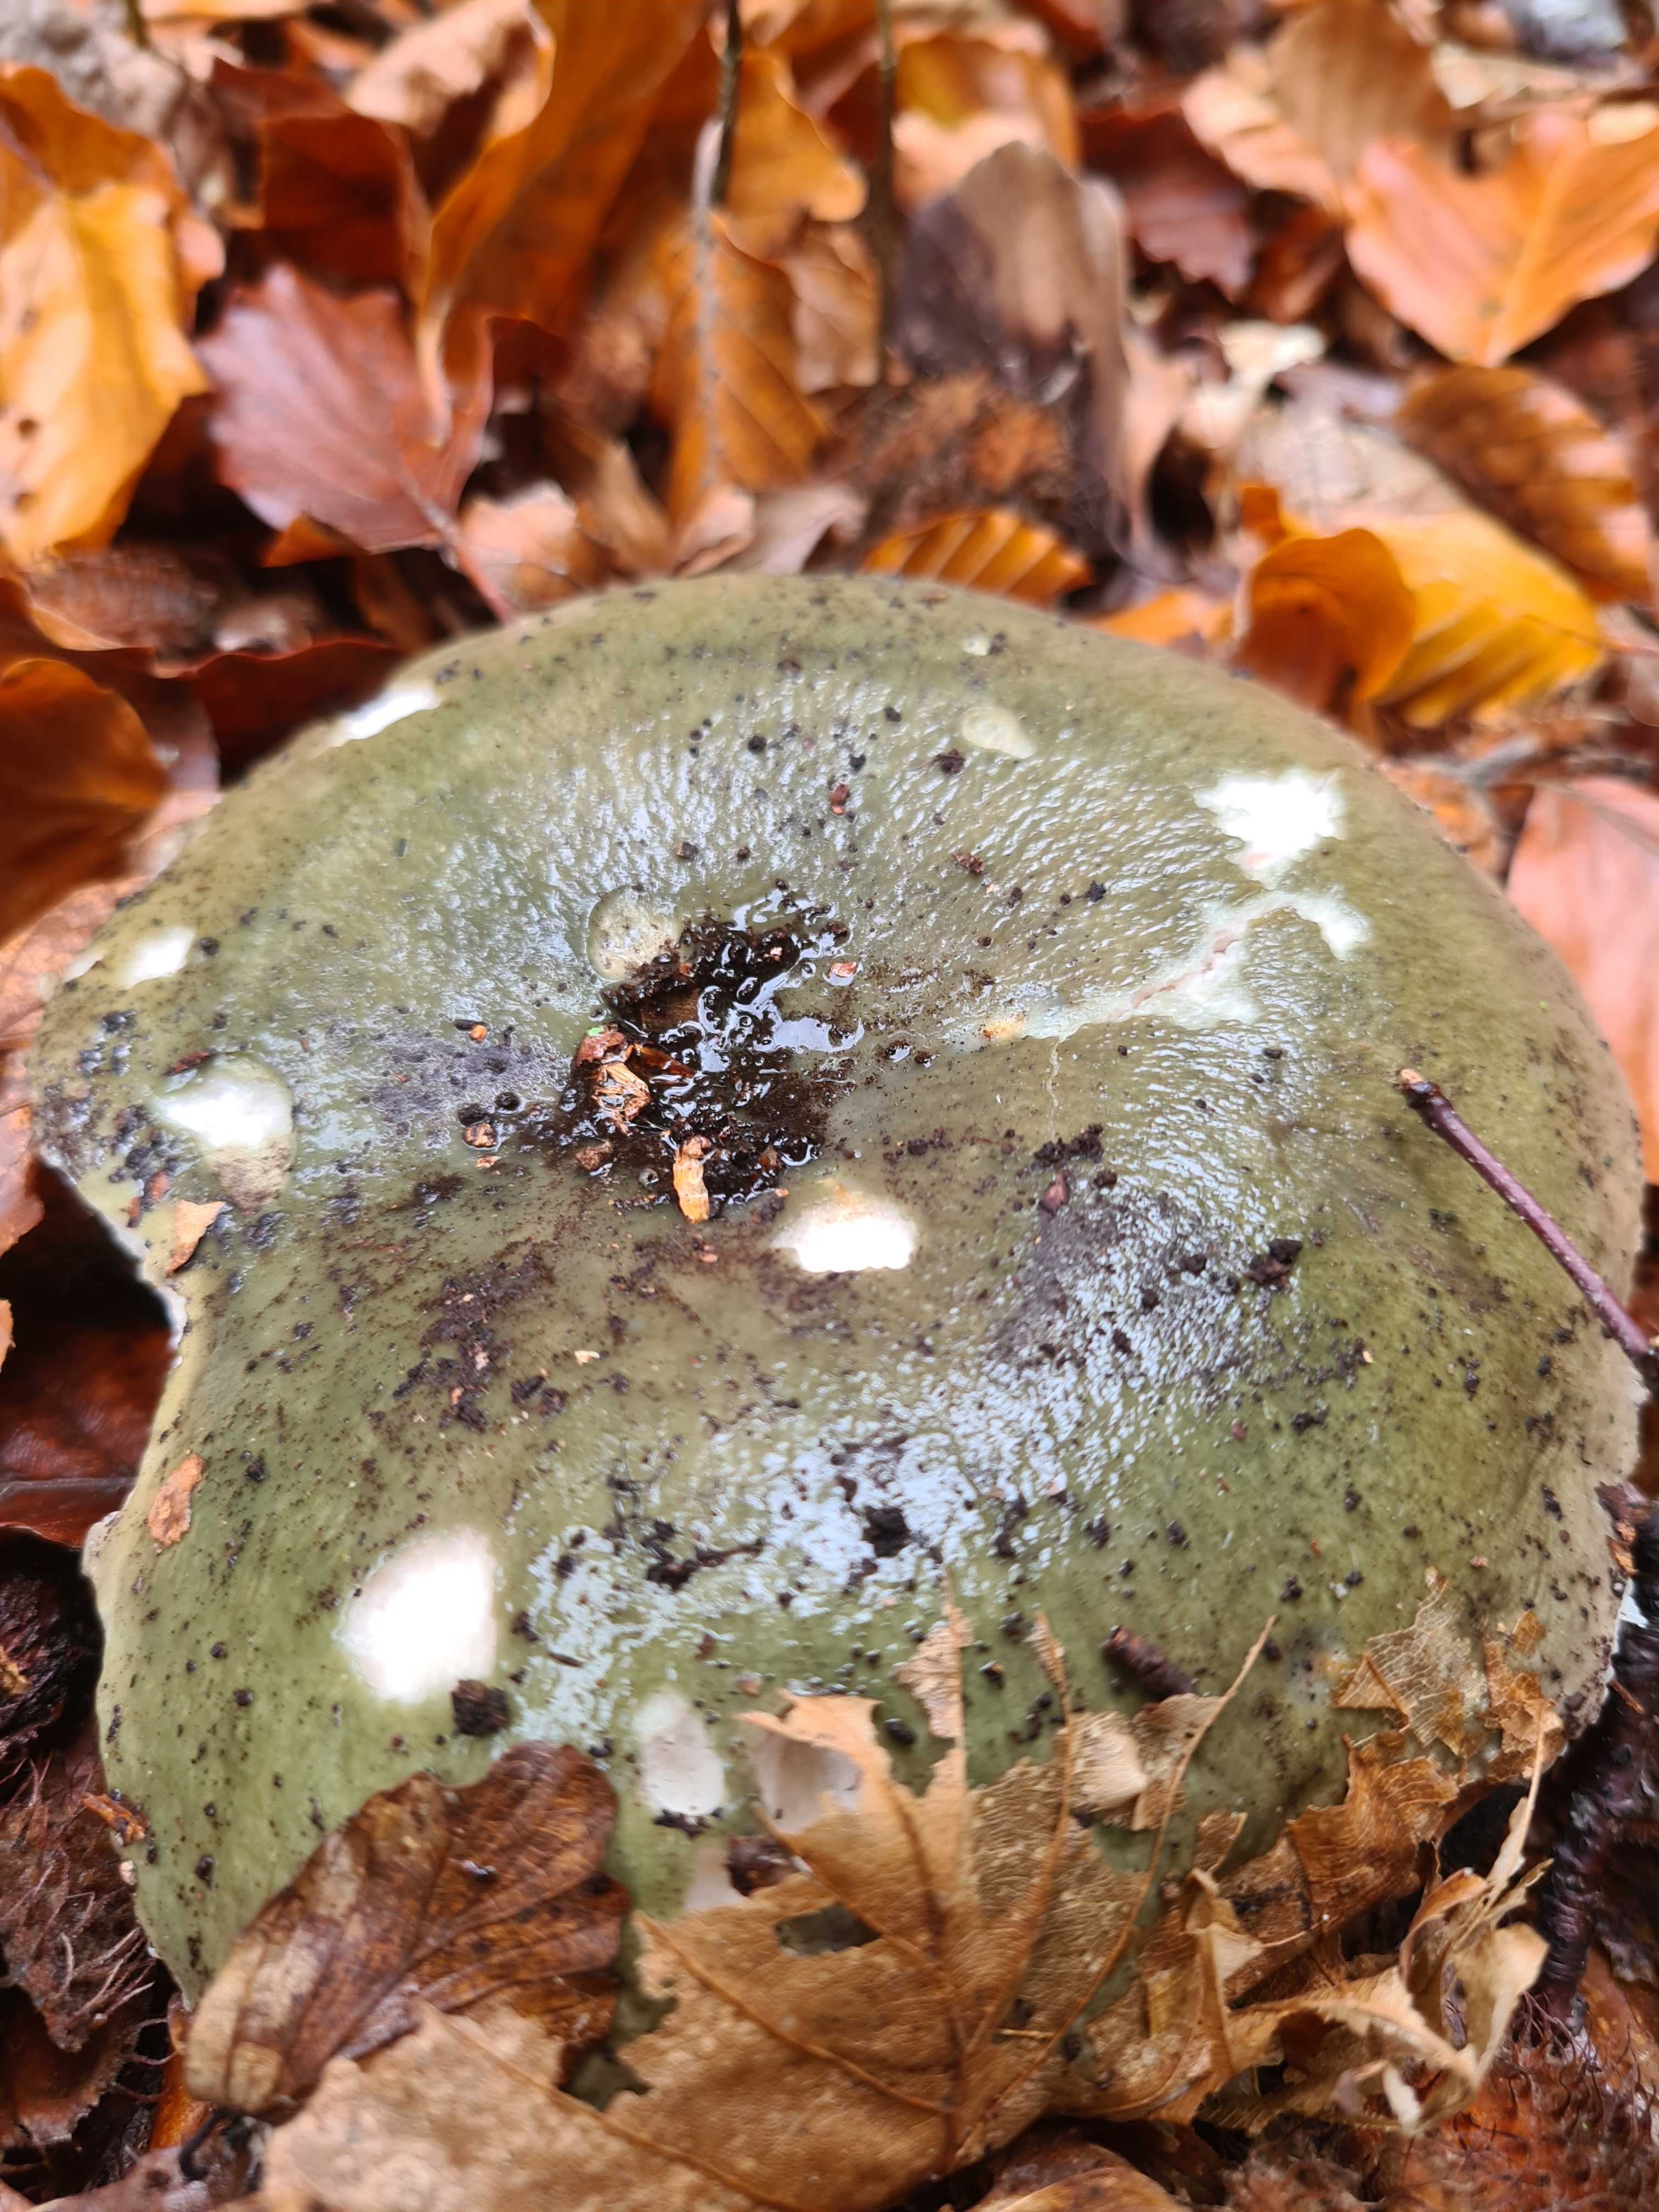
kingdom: Fungi
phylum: Basidiomycota
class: Agaricomycetes
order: Russulales
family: Russulaceae
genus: Russula
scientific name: Russula
